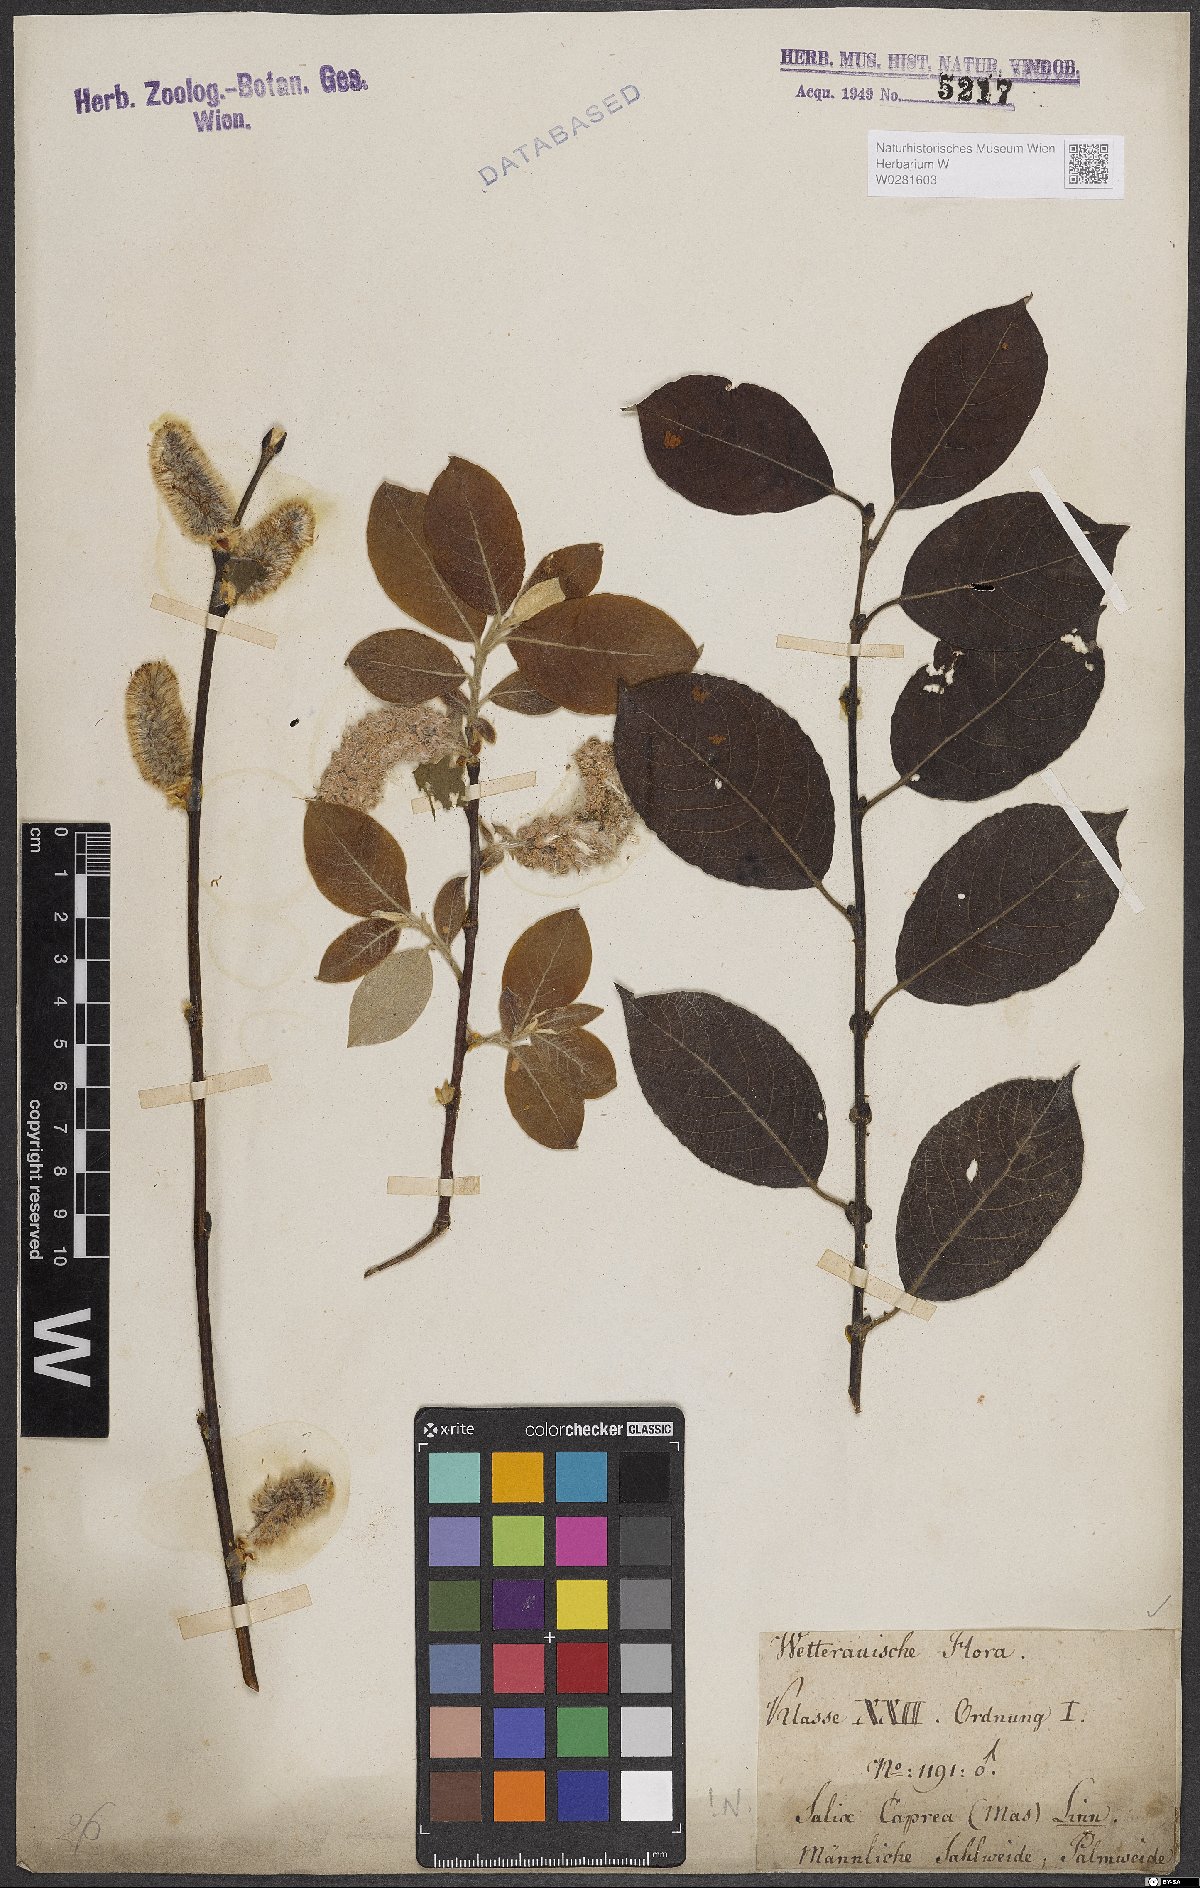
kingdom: Plantae
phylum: Tracheophyta
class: Magnoliopsida
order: Malpighiales
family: Salicaceae
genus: Salix
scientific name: Salix caprea
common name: Goat willow
